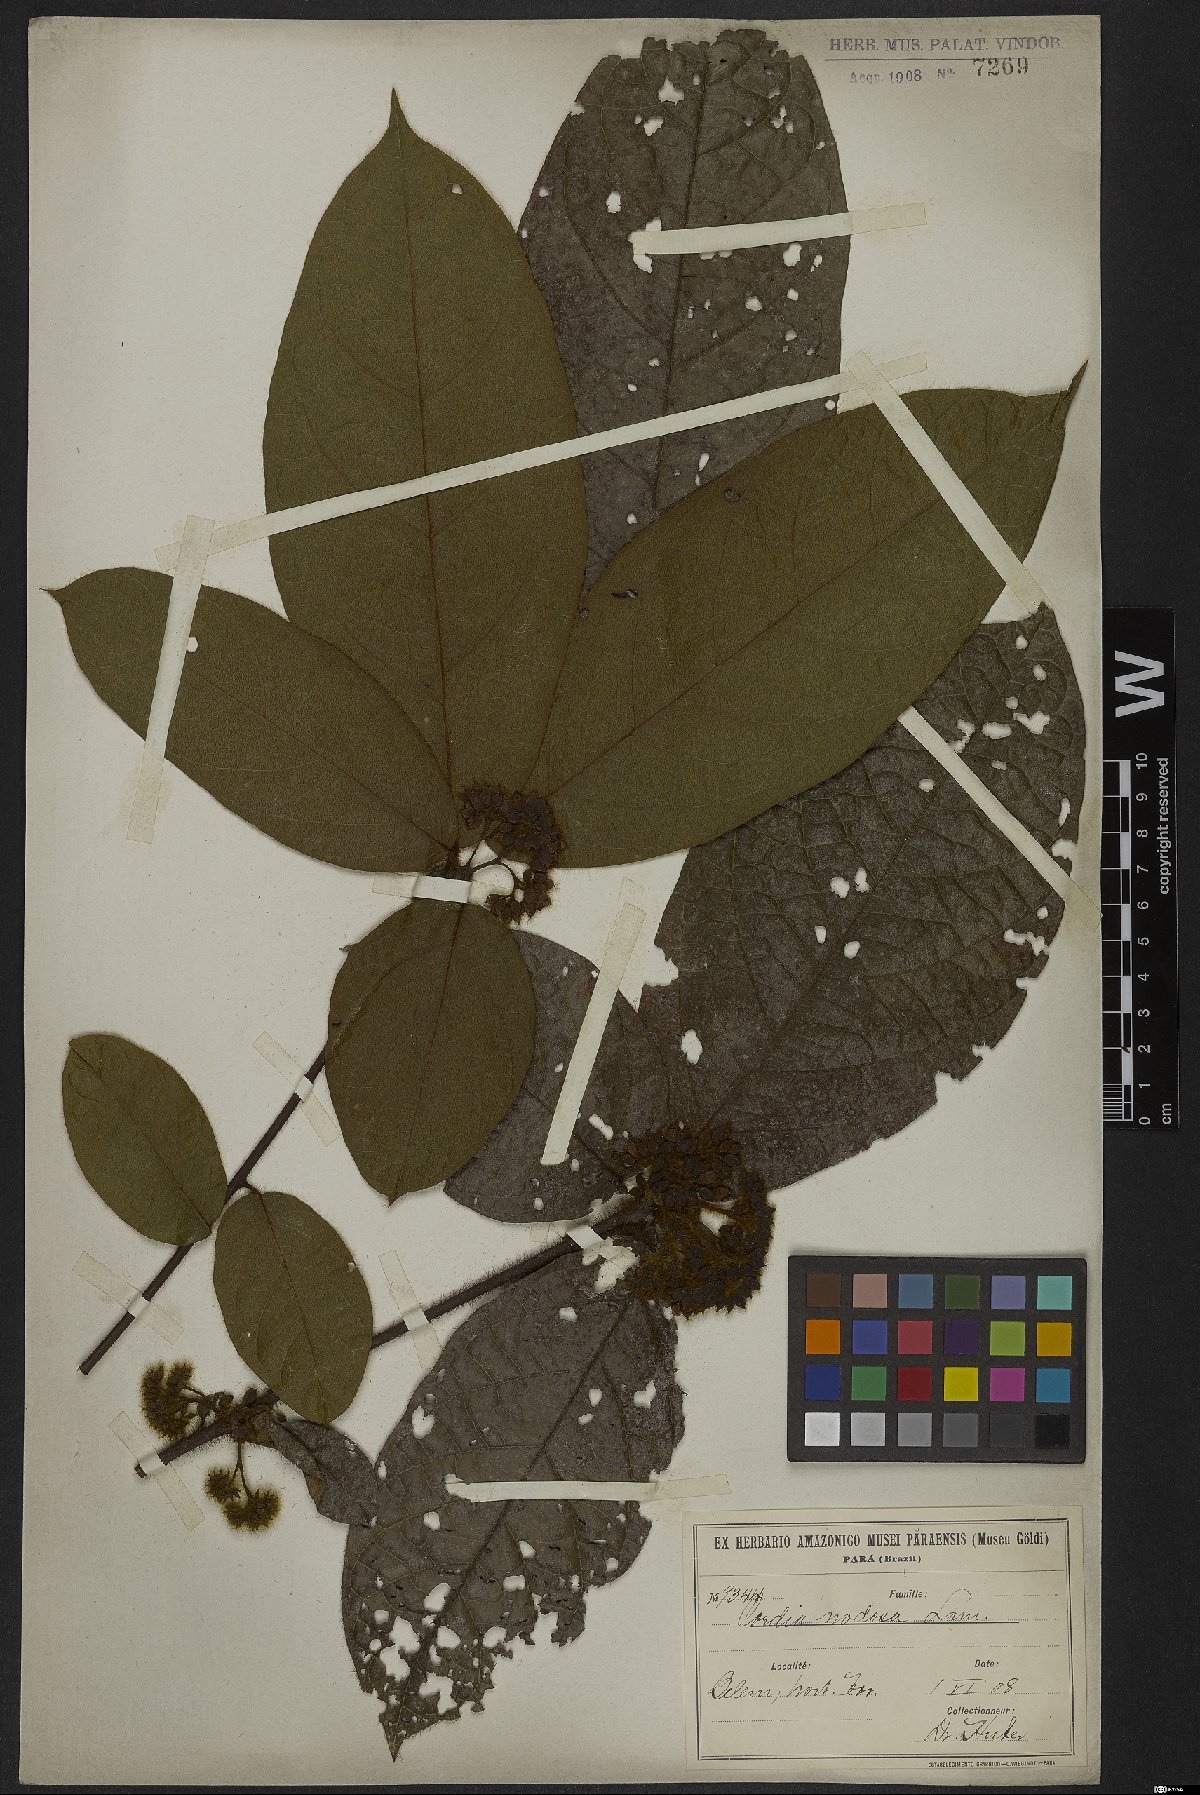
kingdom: Plantae
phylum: Tracheophyta
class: Magnoliopsida
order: Boraginales
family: Cordiaceae
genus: Cordia
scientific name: Cordia nodosa
